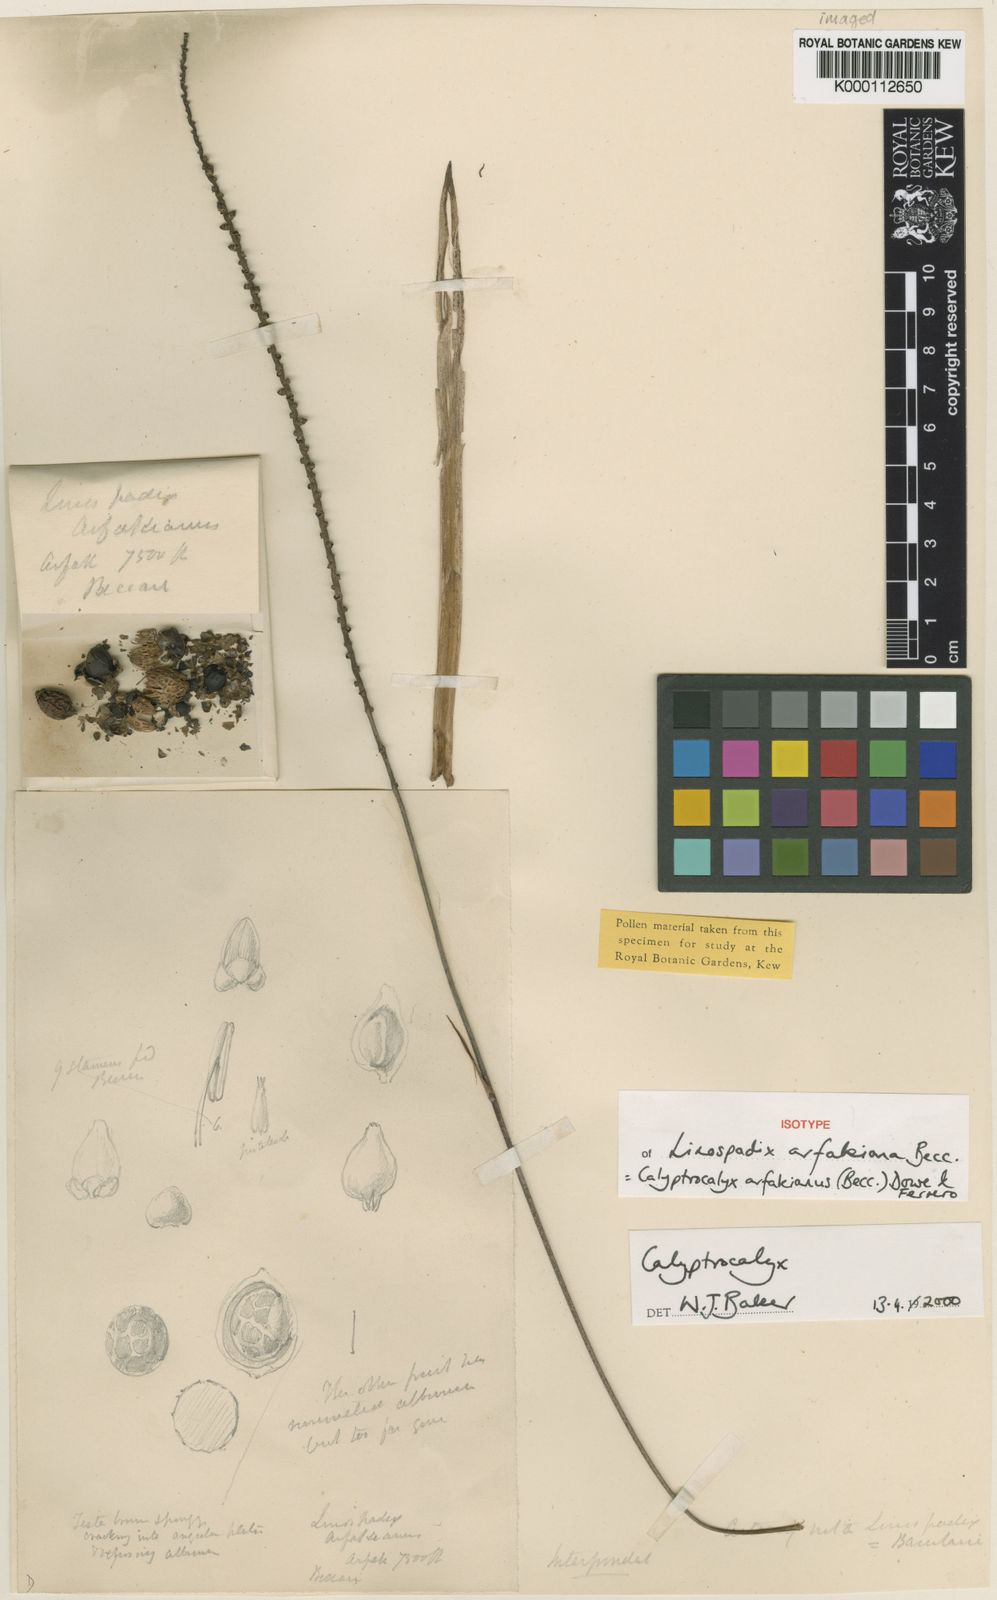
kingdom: Plantae
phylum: Tracheophyta
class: Liliopsida
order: Arecales
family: Arecaceae
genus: Calyptrocalyx
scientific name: Calyptrocalyx arfakianus
